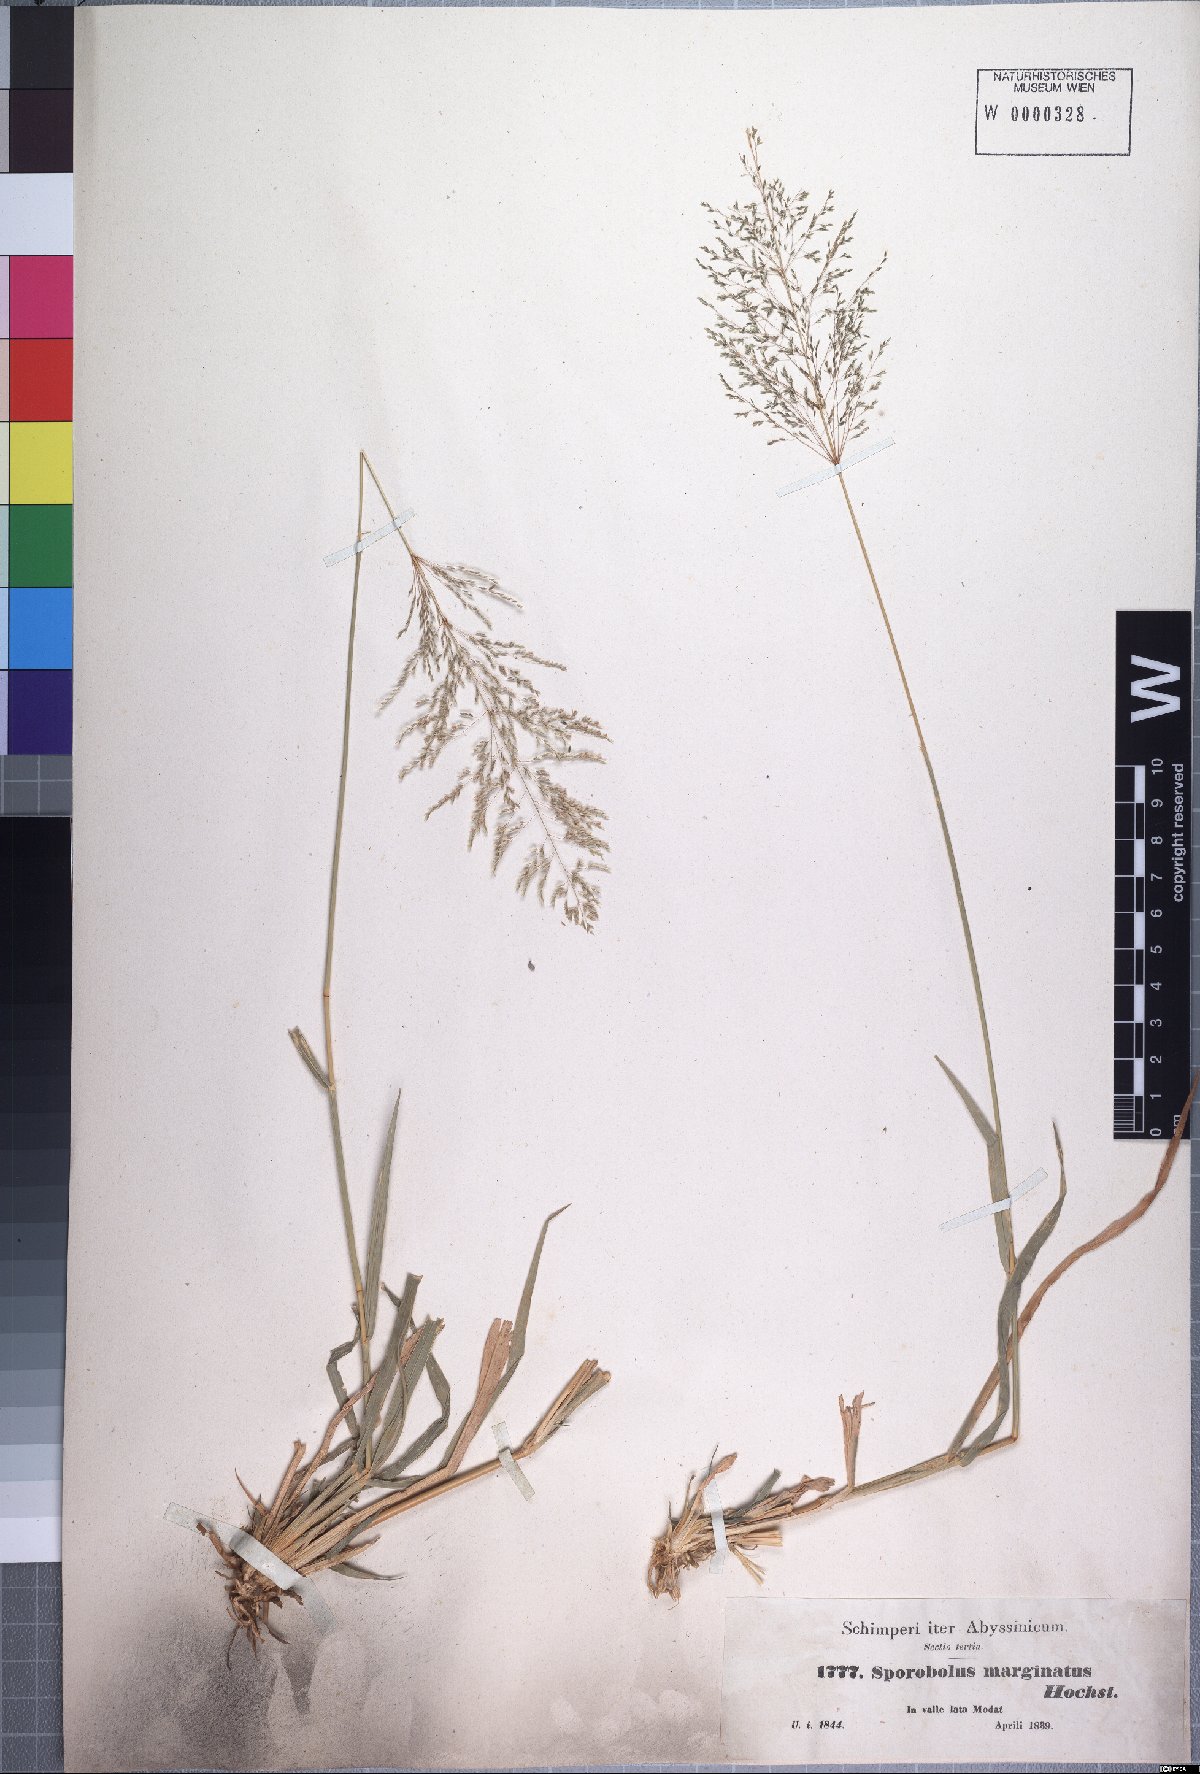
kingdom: Plantae
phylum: Tracheophyta
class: Liliopsida
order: Poales
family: Poaceae
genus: Sporobolus
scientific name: Sporobolus ioclados
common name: Pan dropseed
